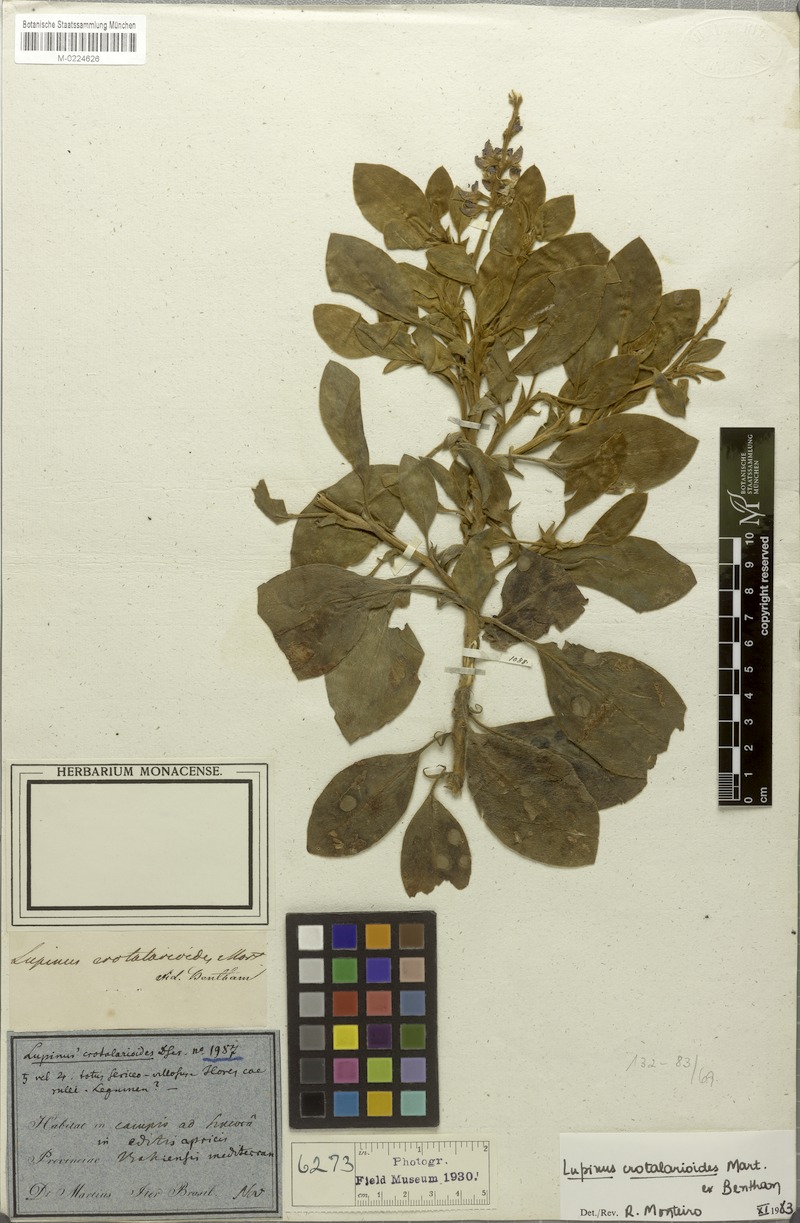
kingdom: Plantae
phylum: Tracheophyta
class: Magnoliopsida
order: Fabales
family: Fabaceae
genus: Lupinus
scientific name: Lupinus crotalarioides
